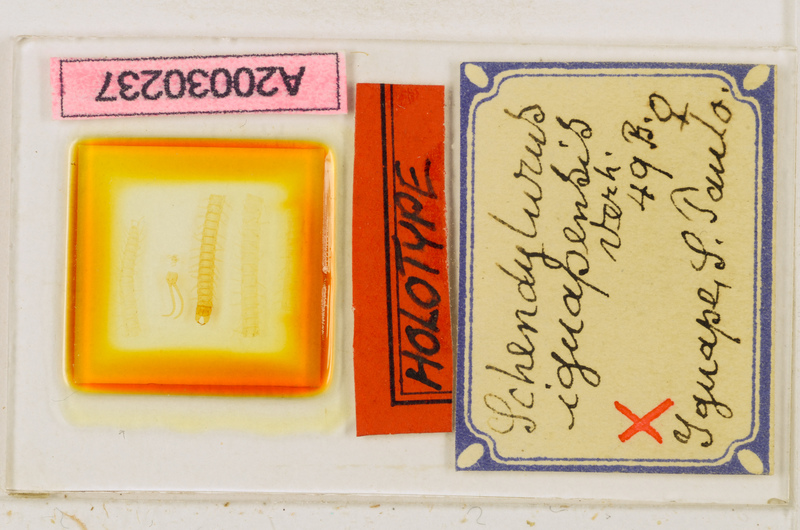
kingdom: Animalia
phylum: Arthropoda
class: Chilopoda
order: Geophilomorpha
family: Schendylidae
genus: Schendyla
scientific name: Schendyla
